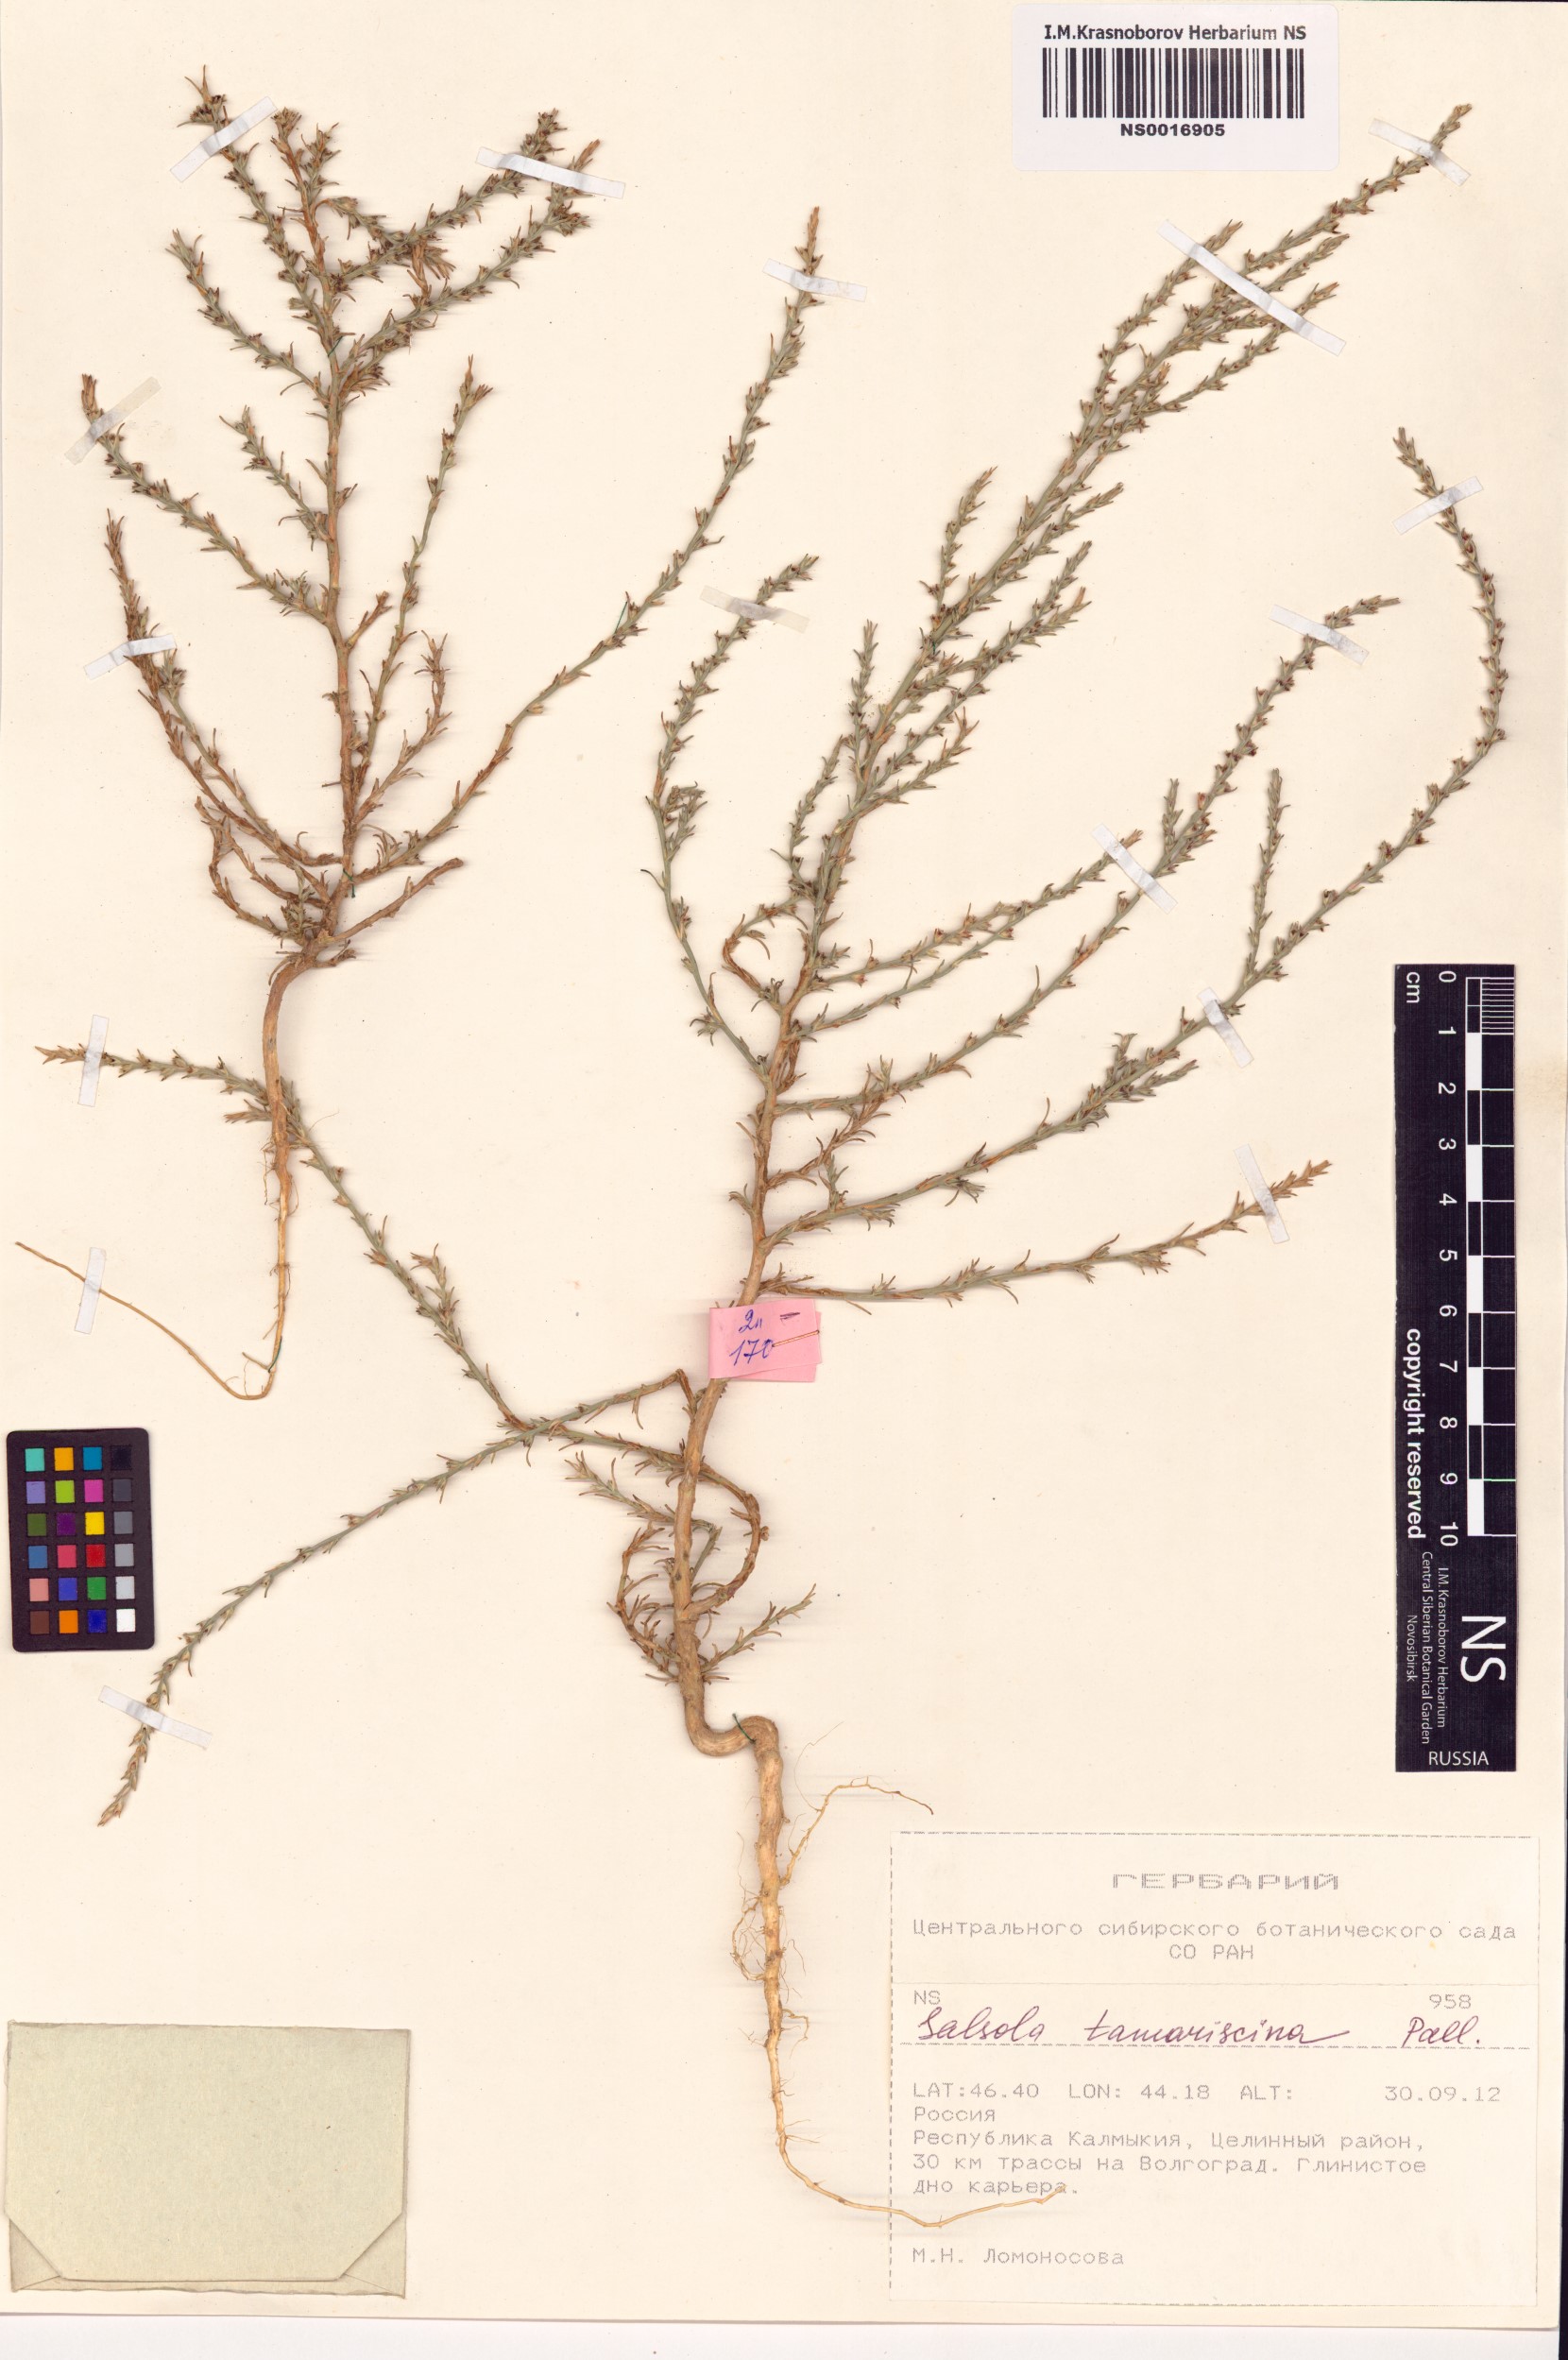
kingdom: Plantae
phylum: Tracheophyta
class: Magnoliopsida
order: Caryophyllales
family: Amaranthaceae
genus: Salsola
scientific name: Salsola tamariscina
